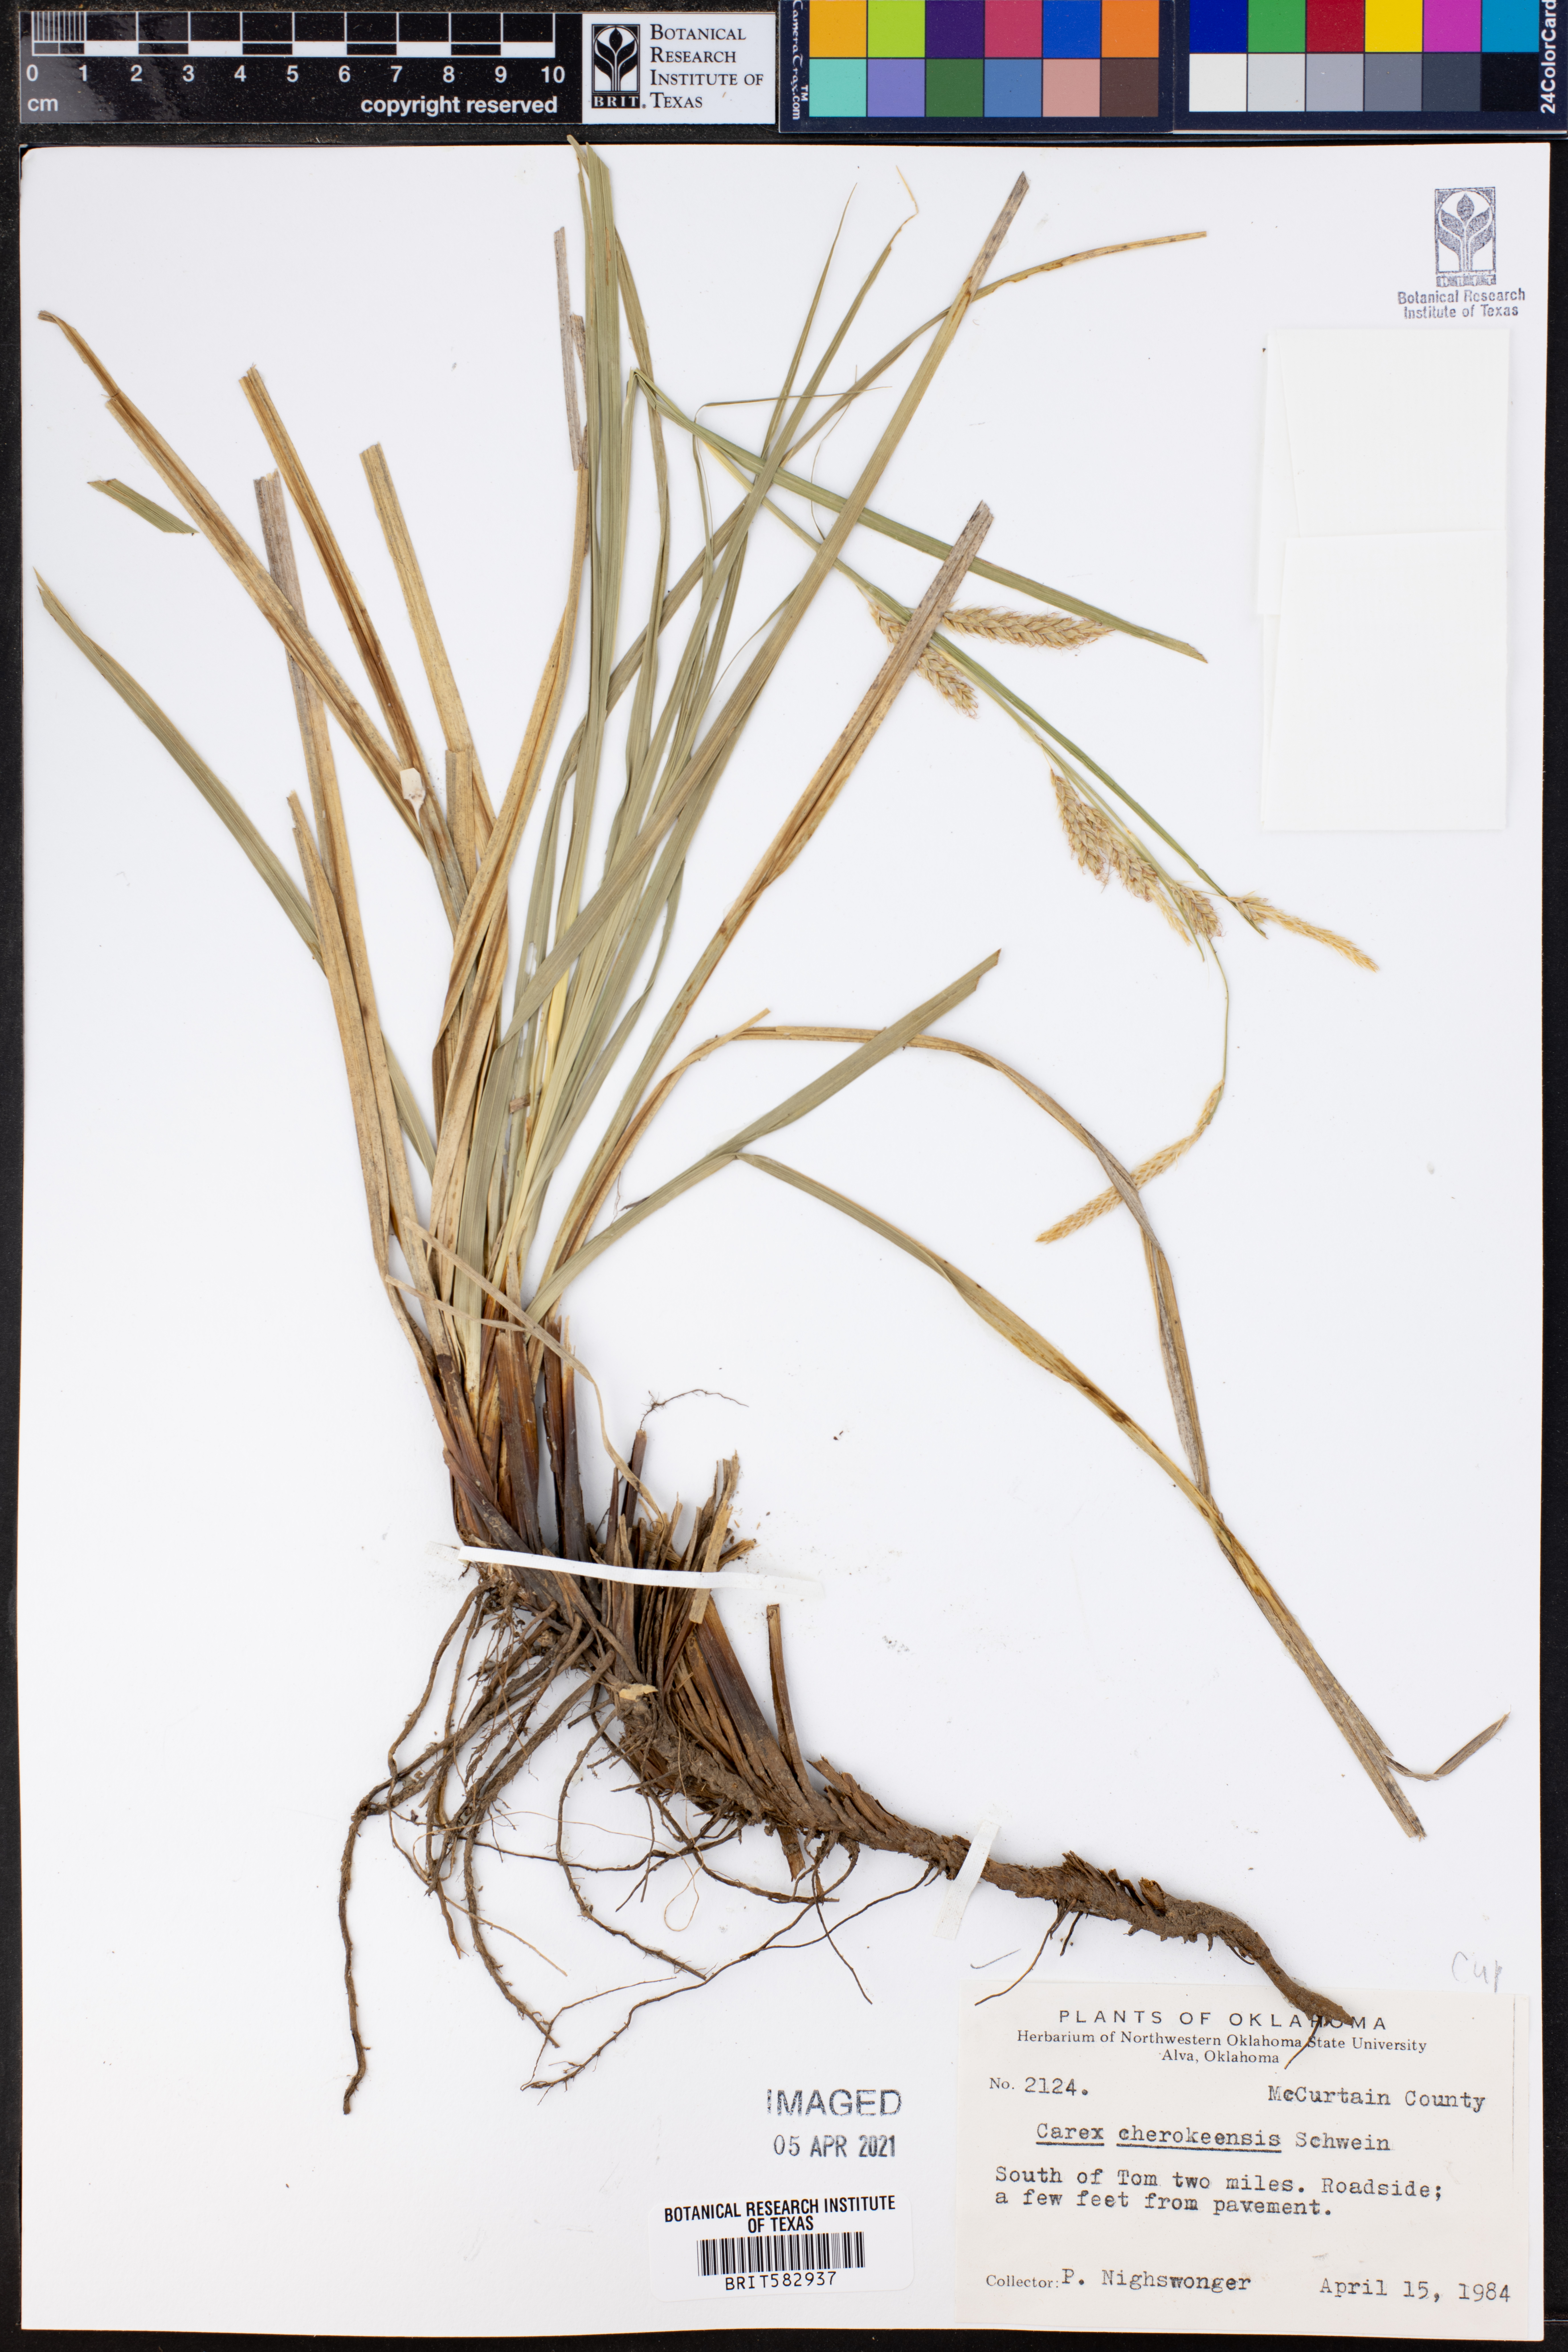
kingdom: Plantae
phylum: Tracheophyta
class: Liliopsida
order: Poales
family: Cyperaceae
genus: Carex
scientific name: Carex cherokeensis
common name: Cherokee sedge
